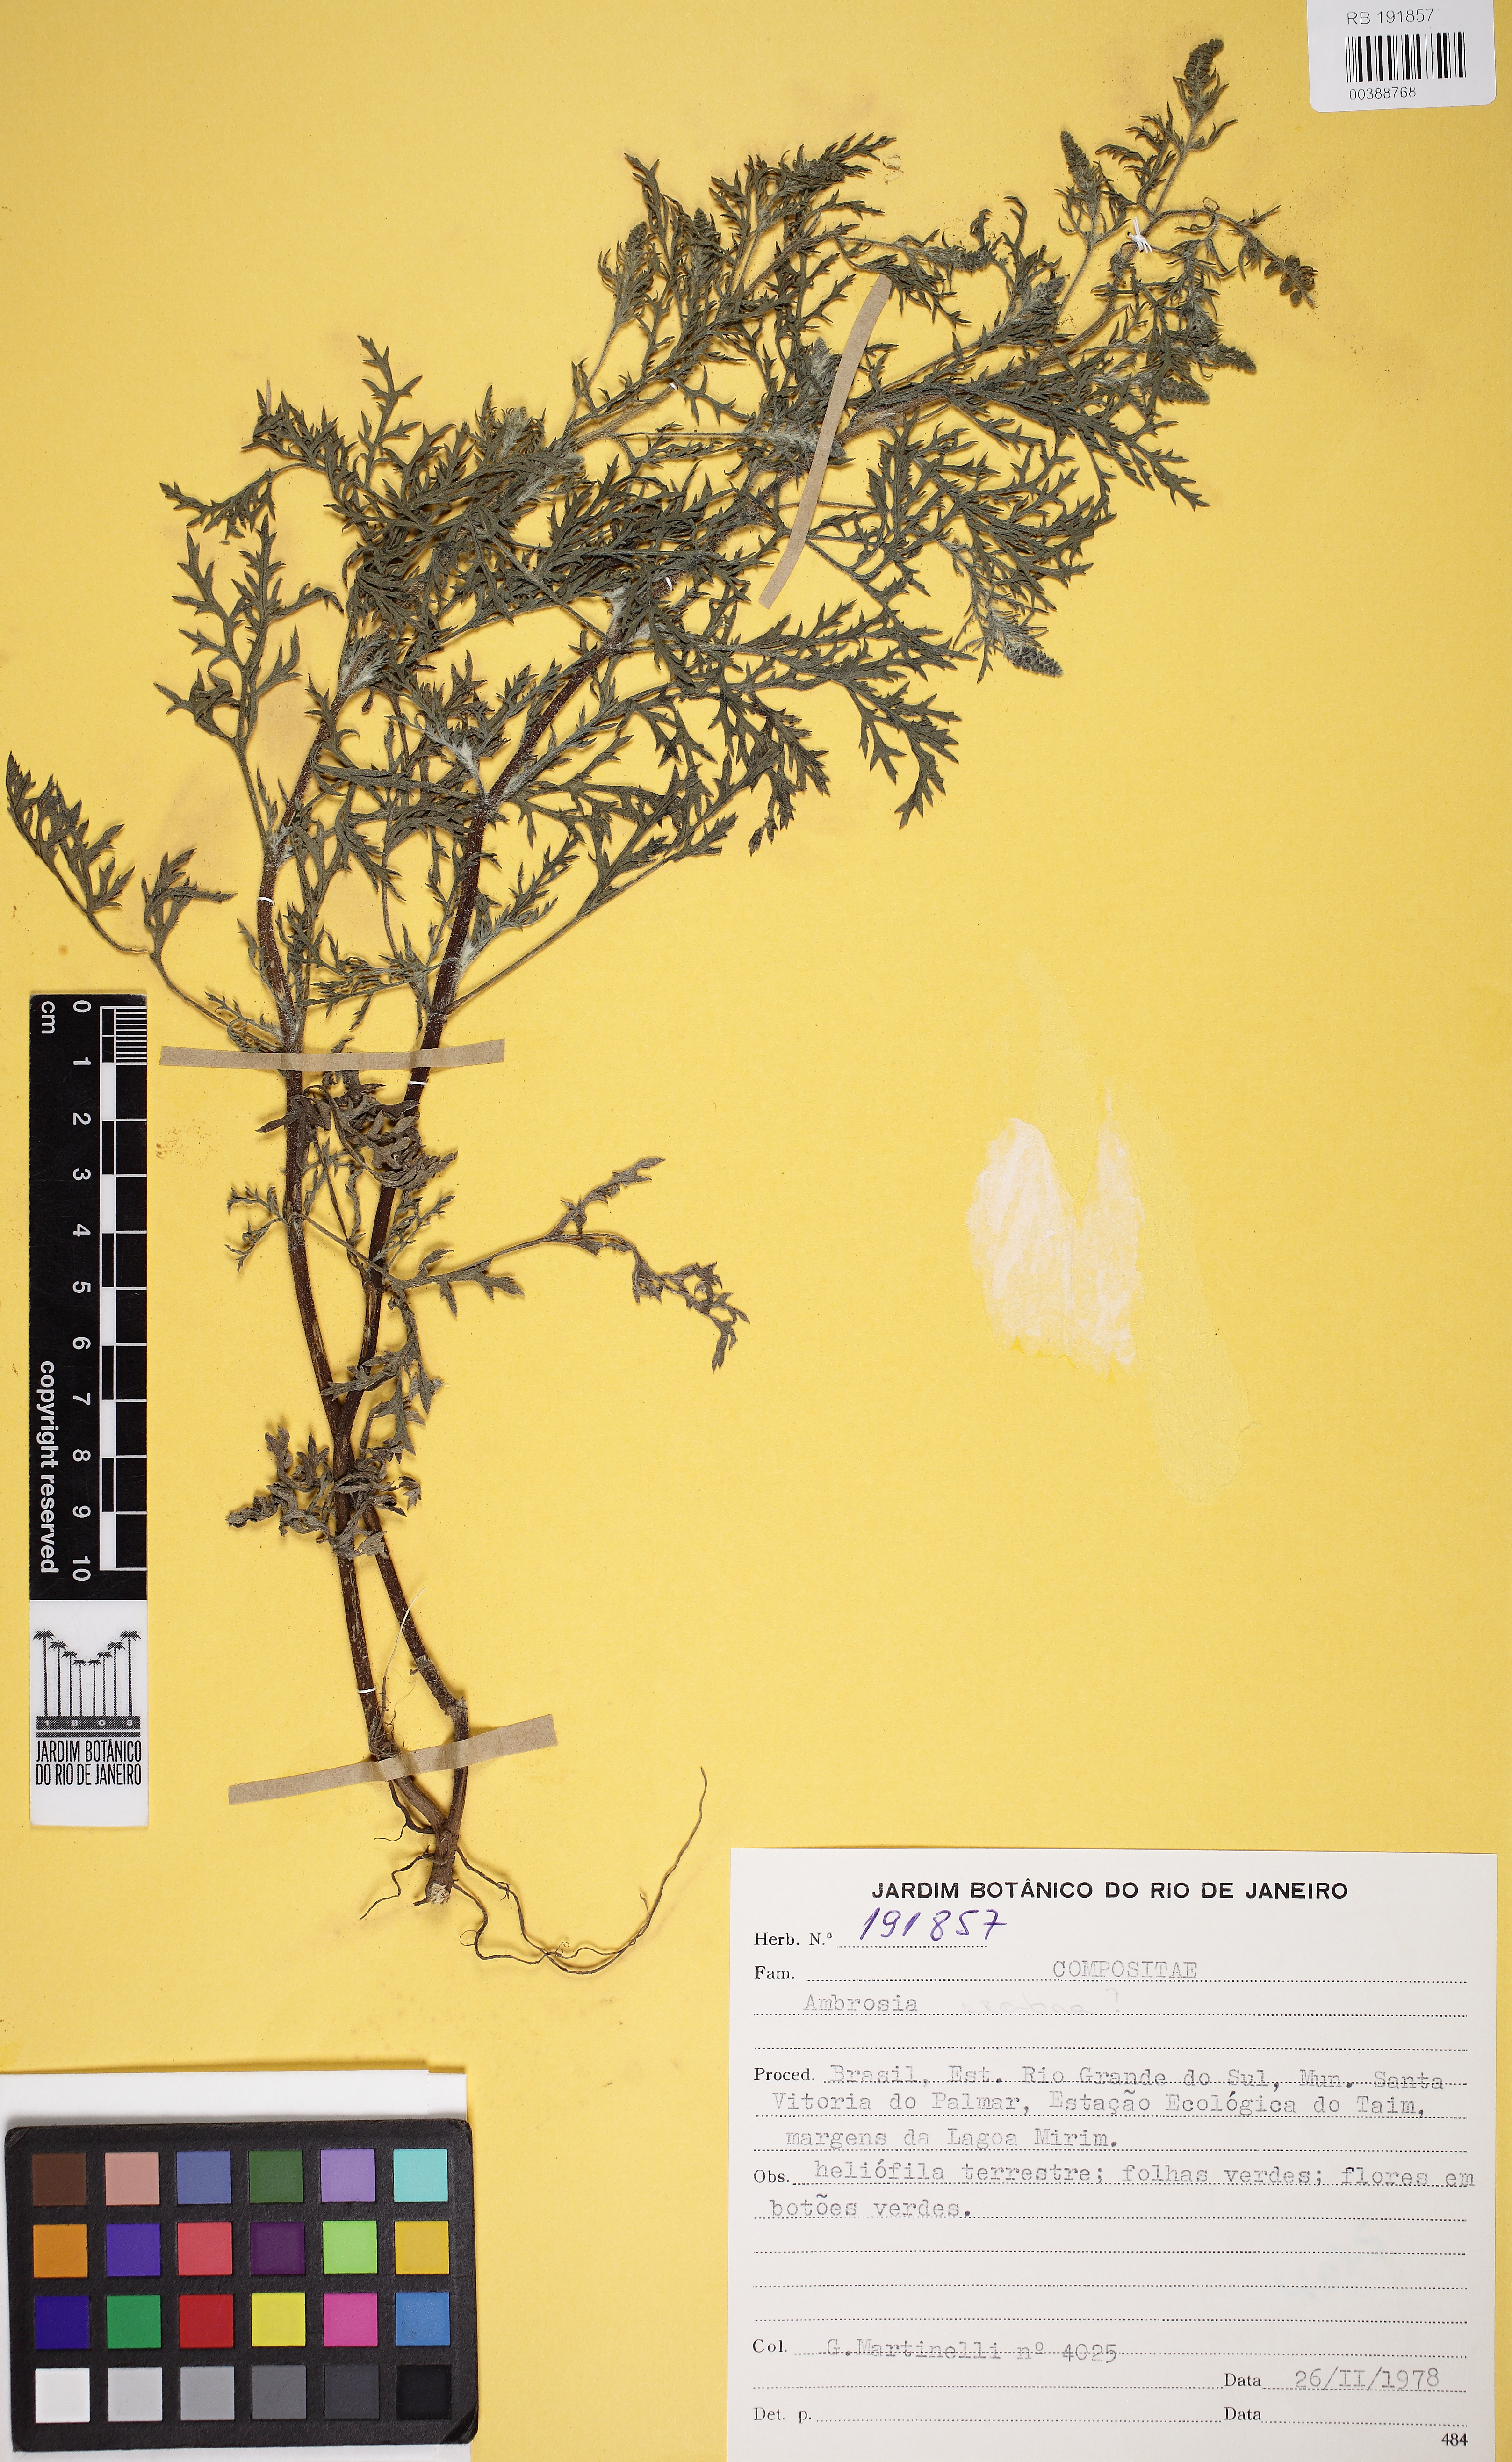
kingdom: Plantae
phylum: Tracheophyta
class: Magnoliopsida
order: Asterales
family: Asteraceae
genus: Ambrosia
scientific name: Ambrosia
